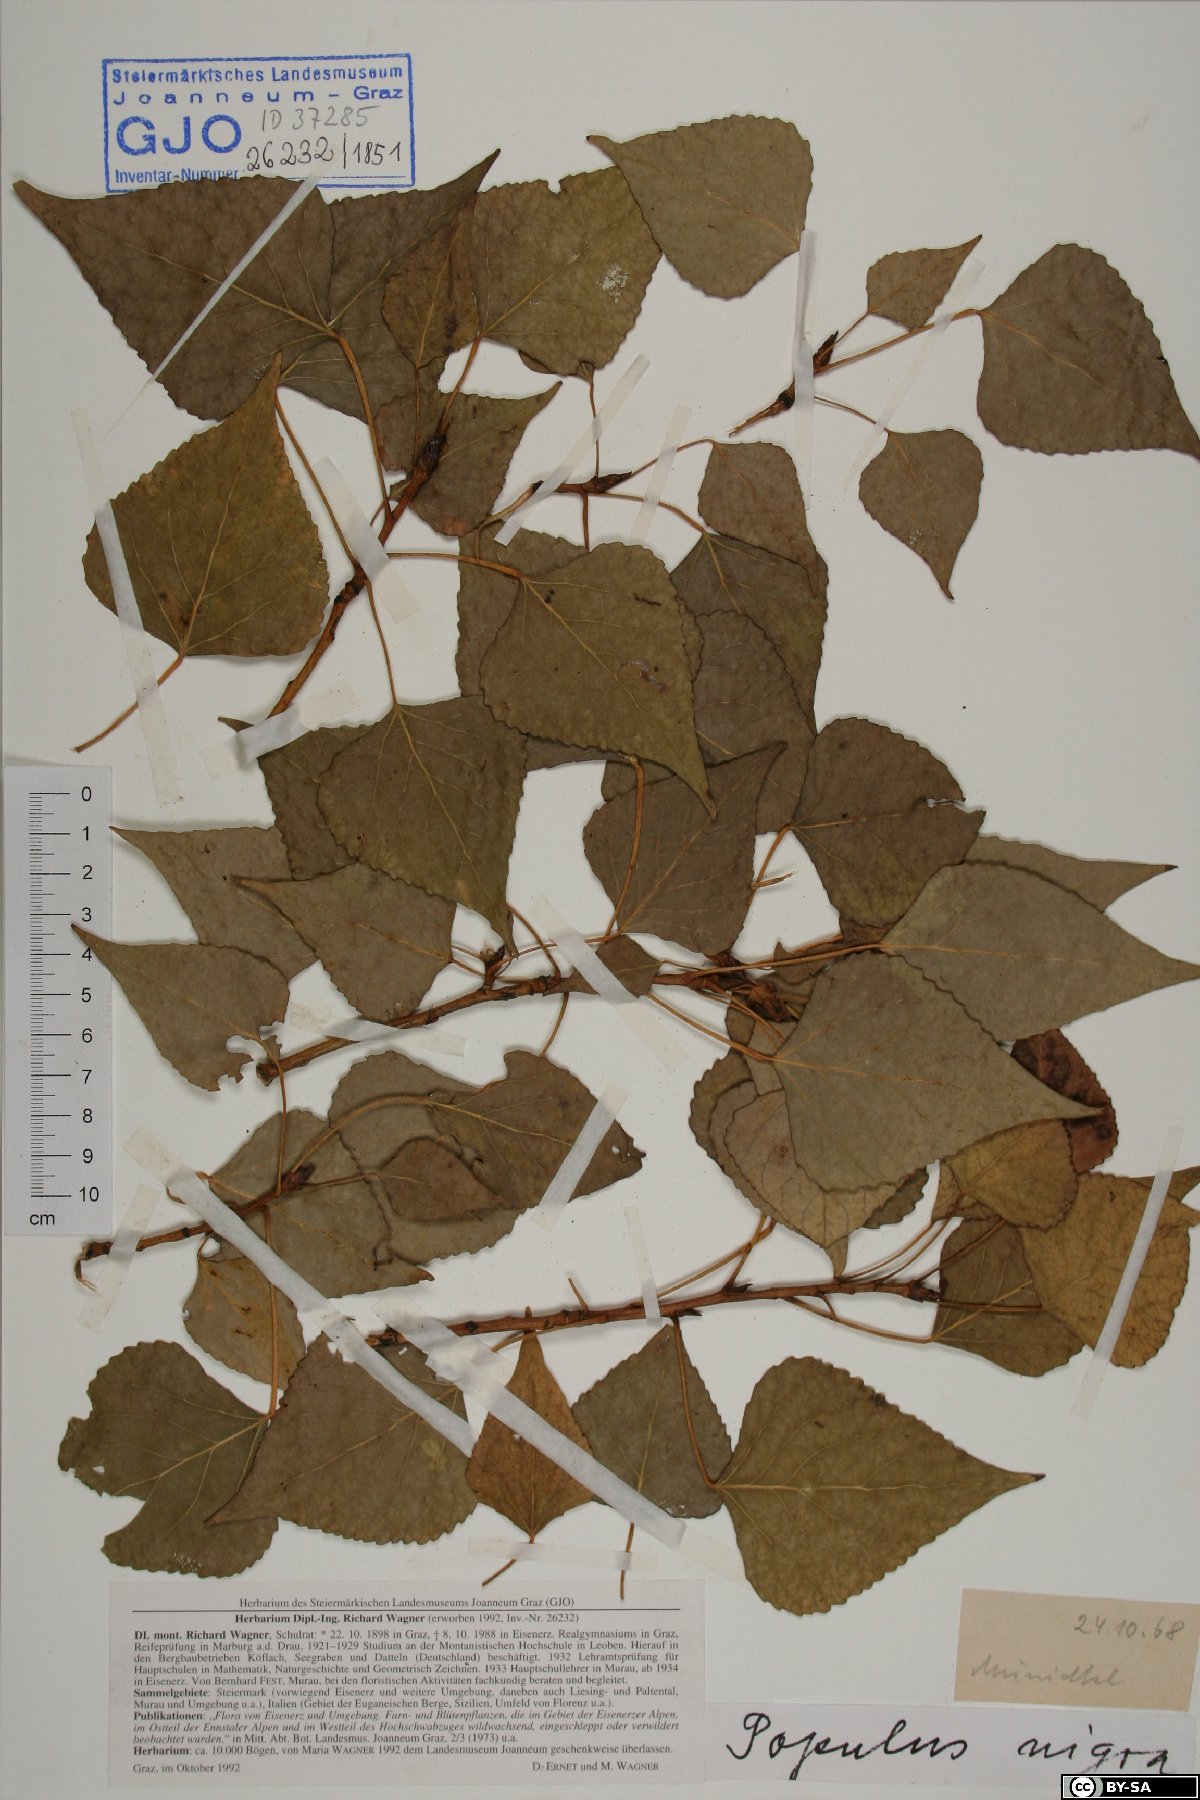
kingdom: Plantae
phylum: Tracheophyta
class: Magnoliopsida
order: Malpighiales
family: Salicaceae
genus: Populus
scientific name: Populus nigra
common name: Black poplar
